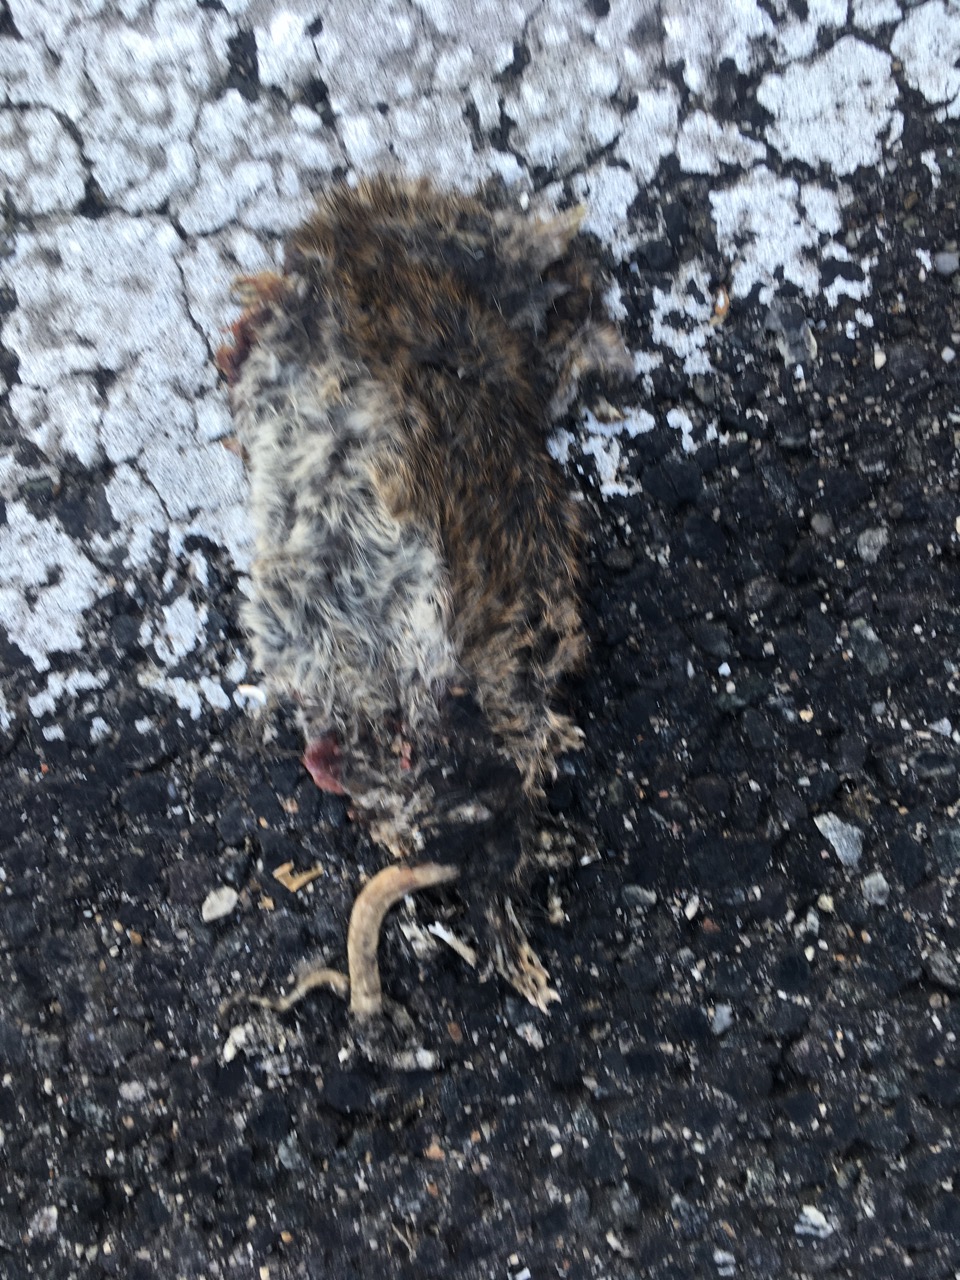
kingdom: Animalia
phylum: Chordata
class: Mammalia
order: Rodentia
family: Muridae
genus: Rattus
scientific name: Rattus
